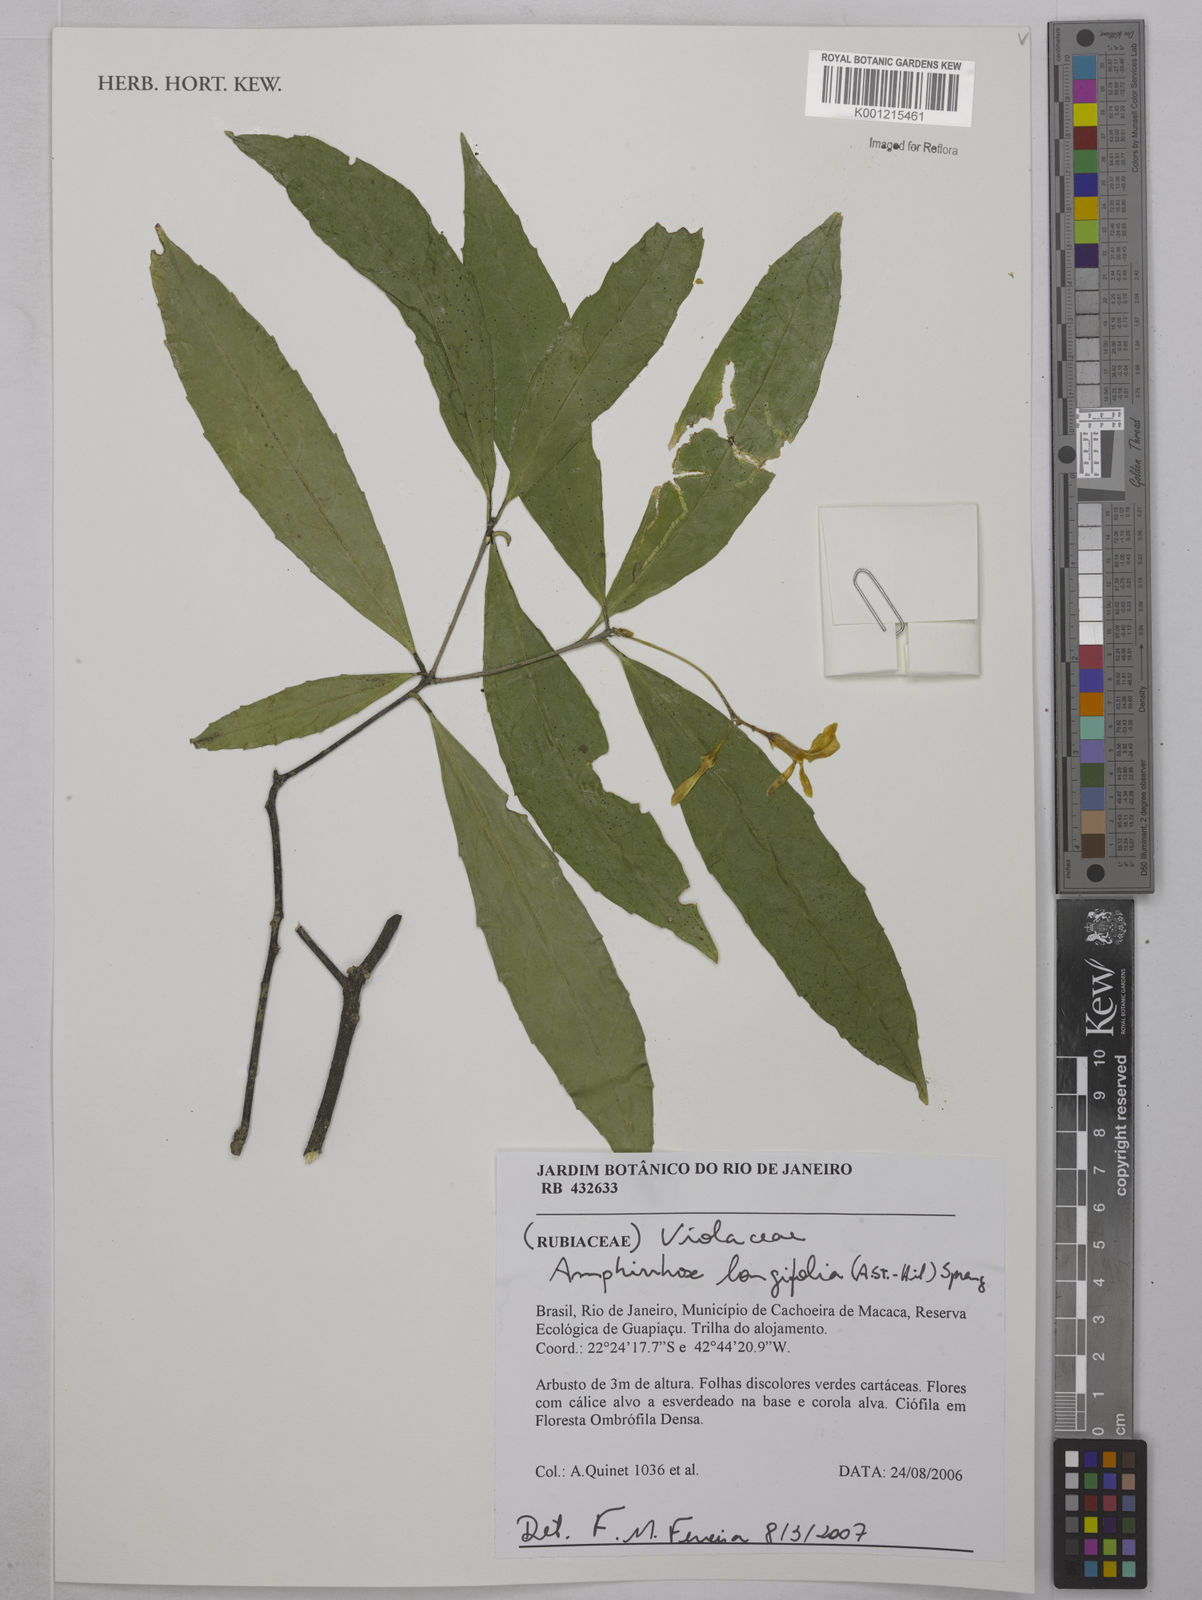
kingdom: Plantae
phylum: Tracheophyta
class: Magnoliopsida
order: Malpighiales
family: Violaceae
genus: Amphirrhox
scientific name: Amphirrhox longifolia
